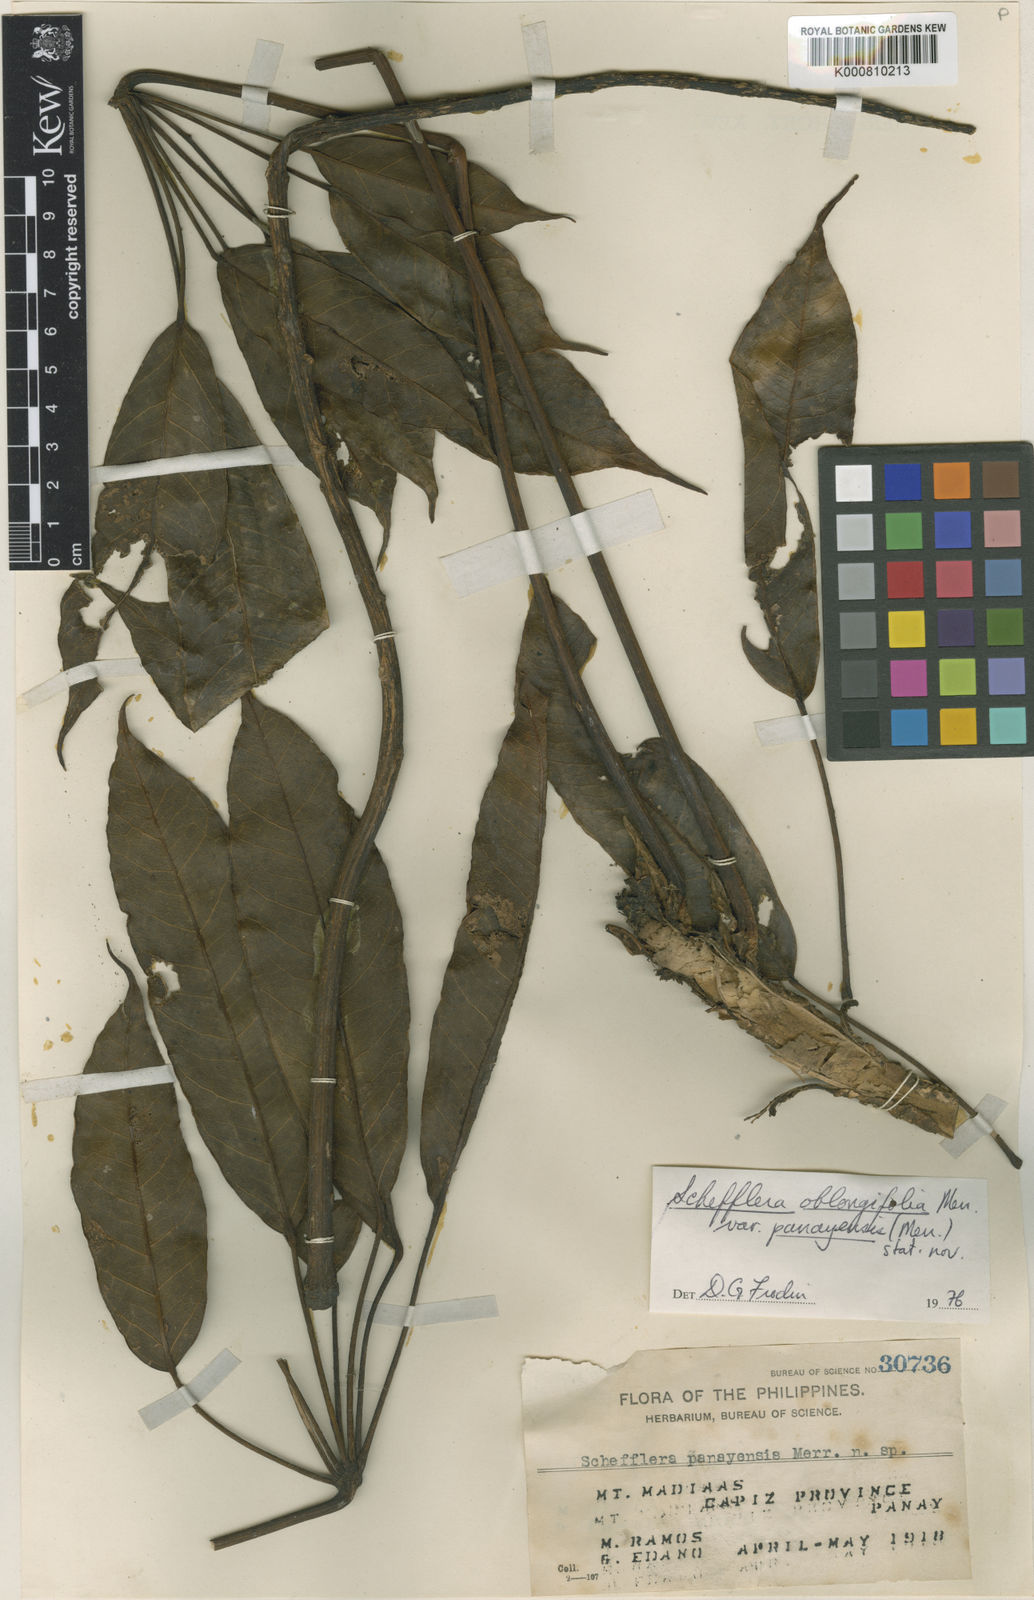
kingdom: Plantae
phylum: Tracheophyta
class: Magnoliopsida
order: Apiales
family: Araliaceae
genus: Heptapleurum
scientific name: Heptapleurum panayense
